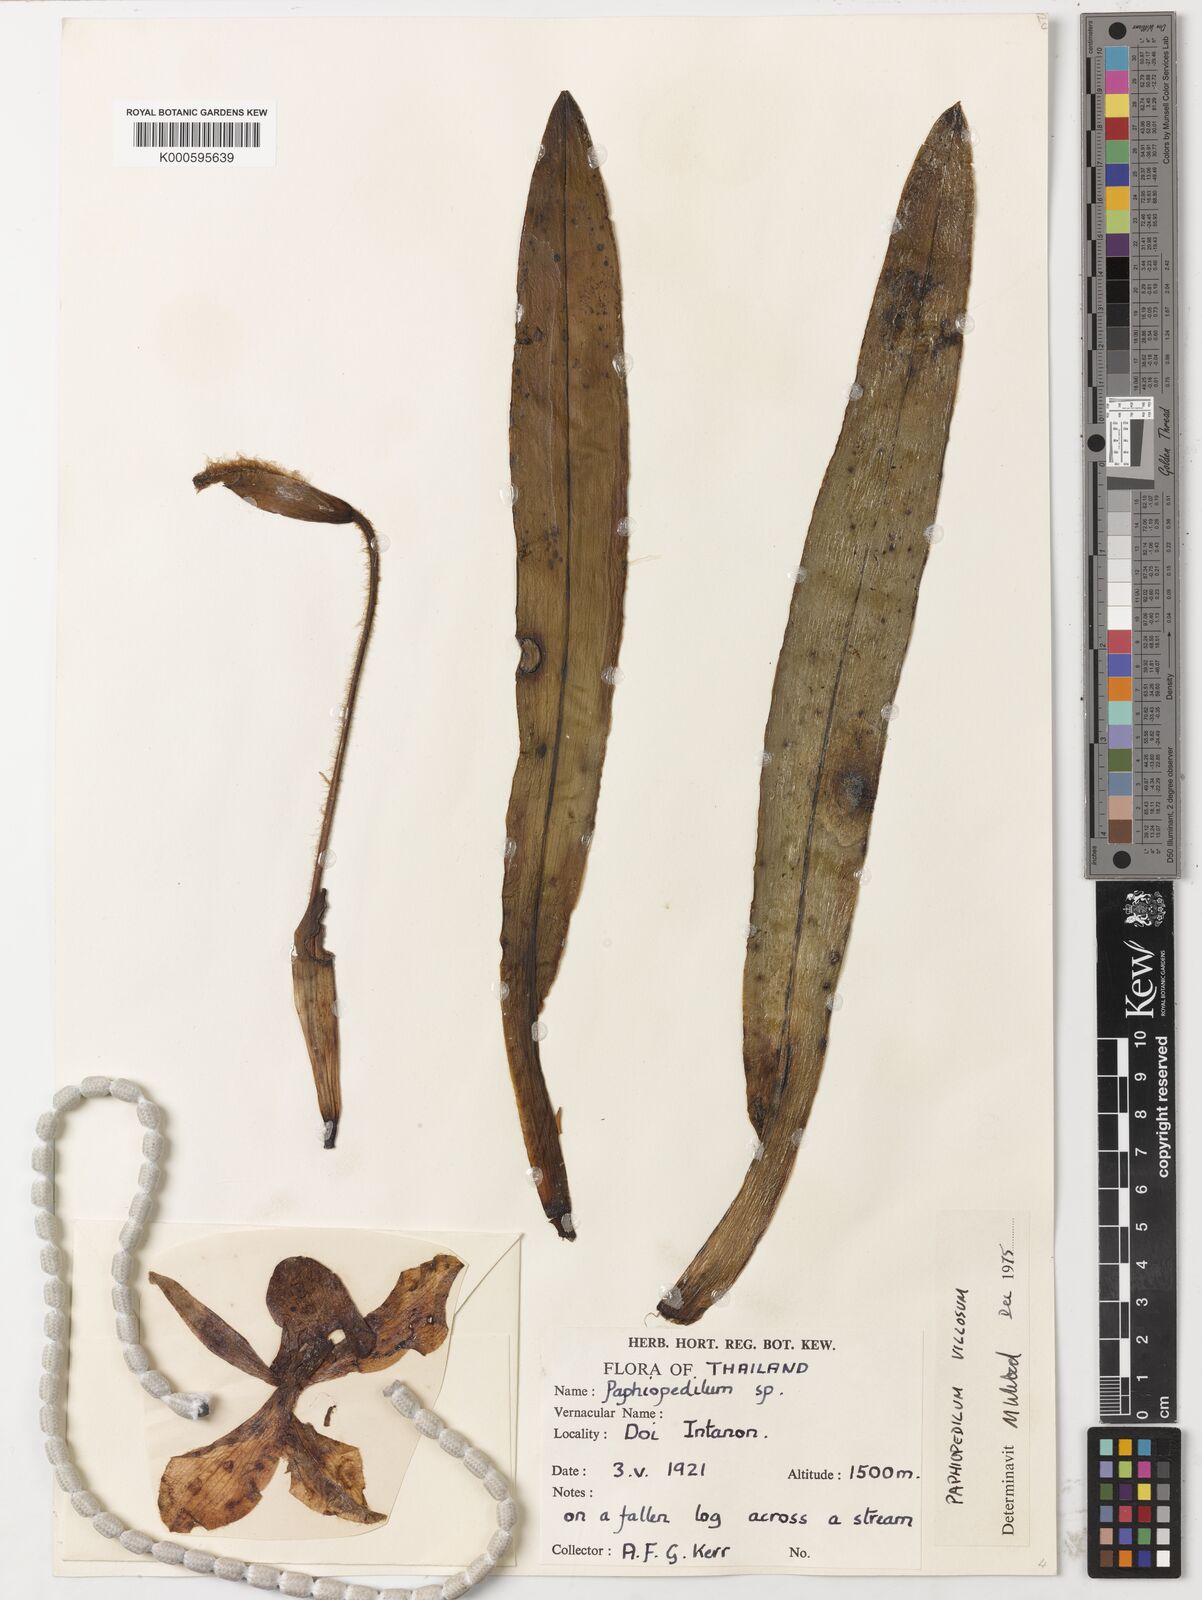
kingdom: Plantae
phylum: Tracheophyta
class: Liliopsida
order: Asparagales
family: Orchidaceae
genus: Paphiopedilum
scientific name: Paphiopedilum
